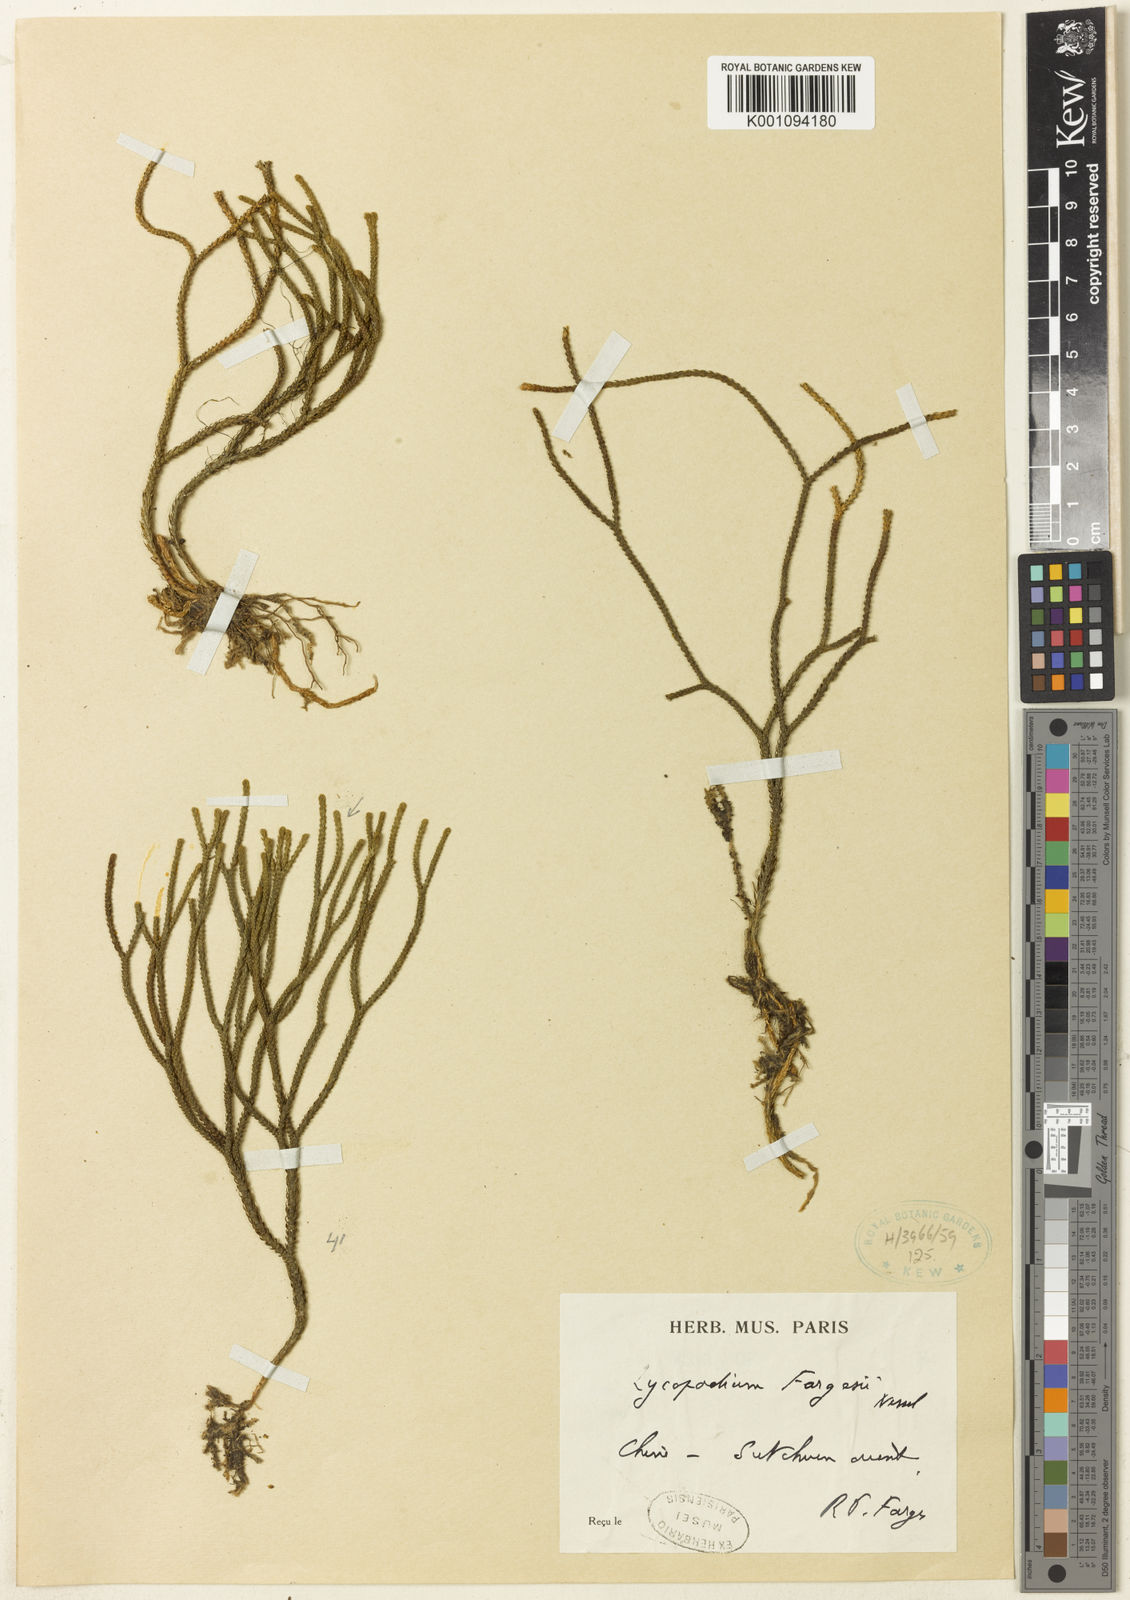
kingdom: Plantae
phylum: Tracheophyta
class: Lycopodiopsida
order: Lycopodiales
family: Lycopodiaceae
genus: Lycopodium
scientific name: Lycopodium
